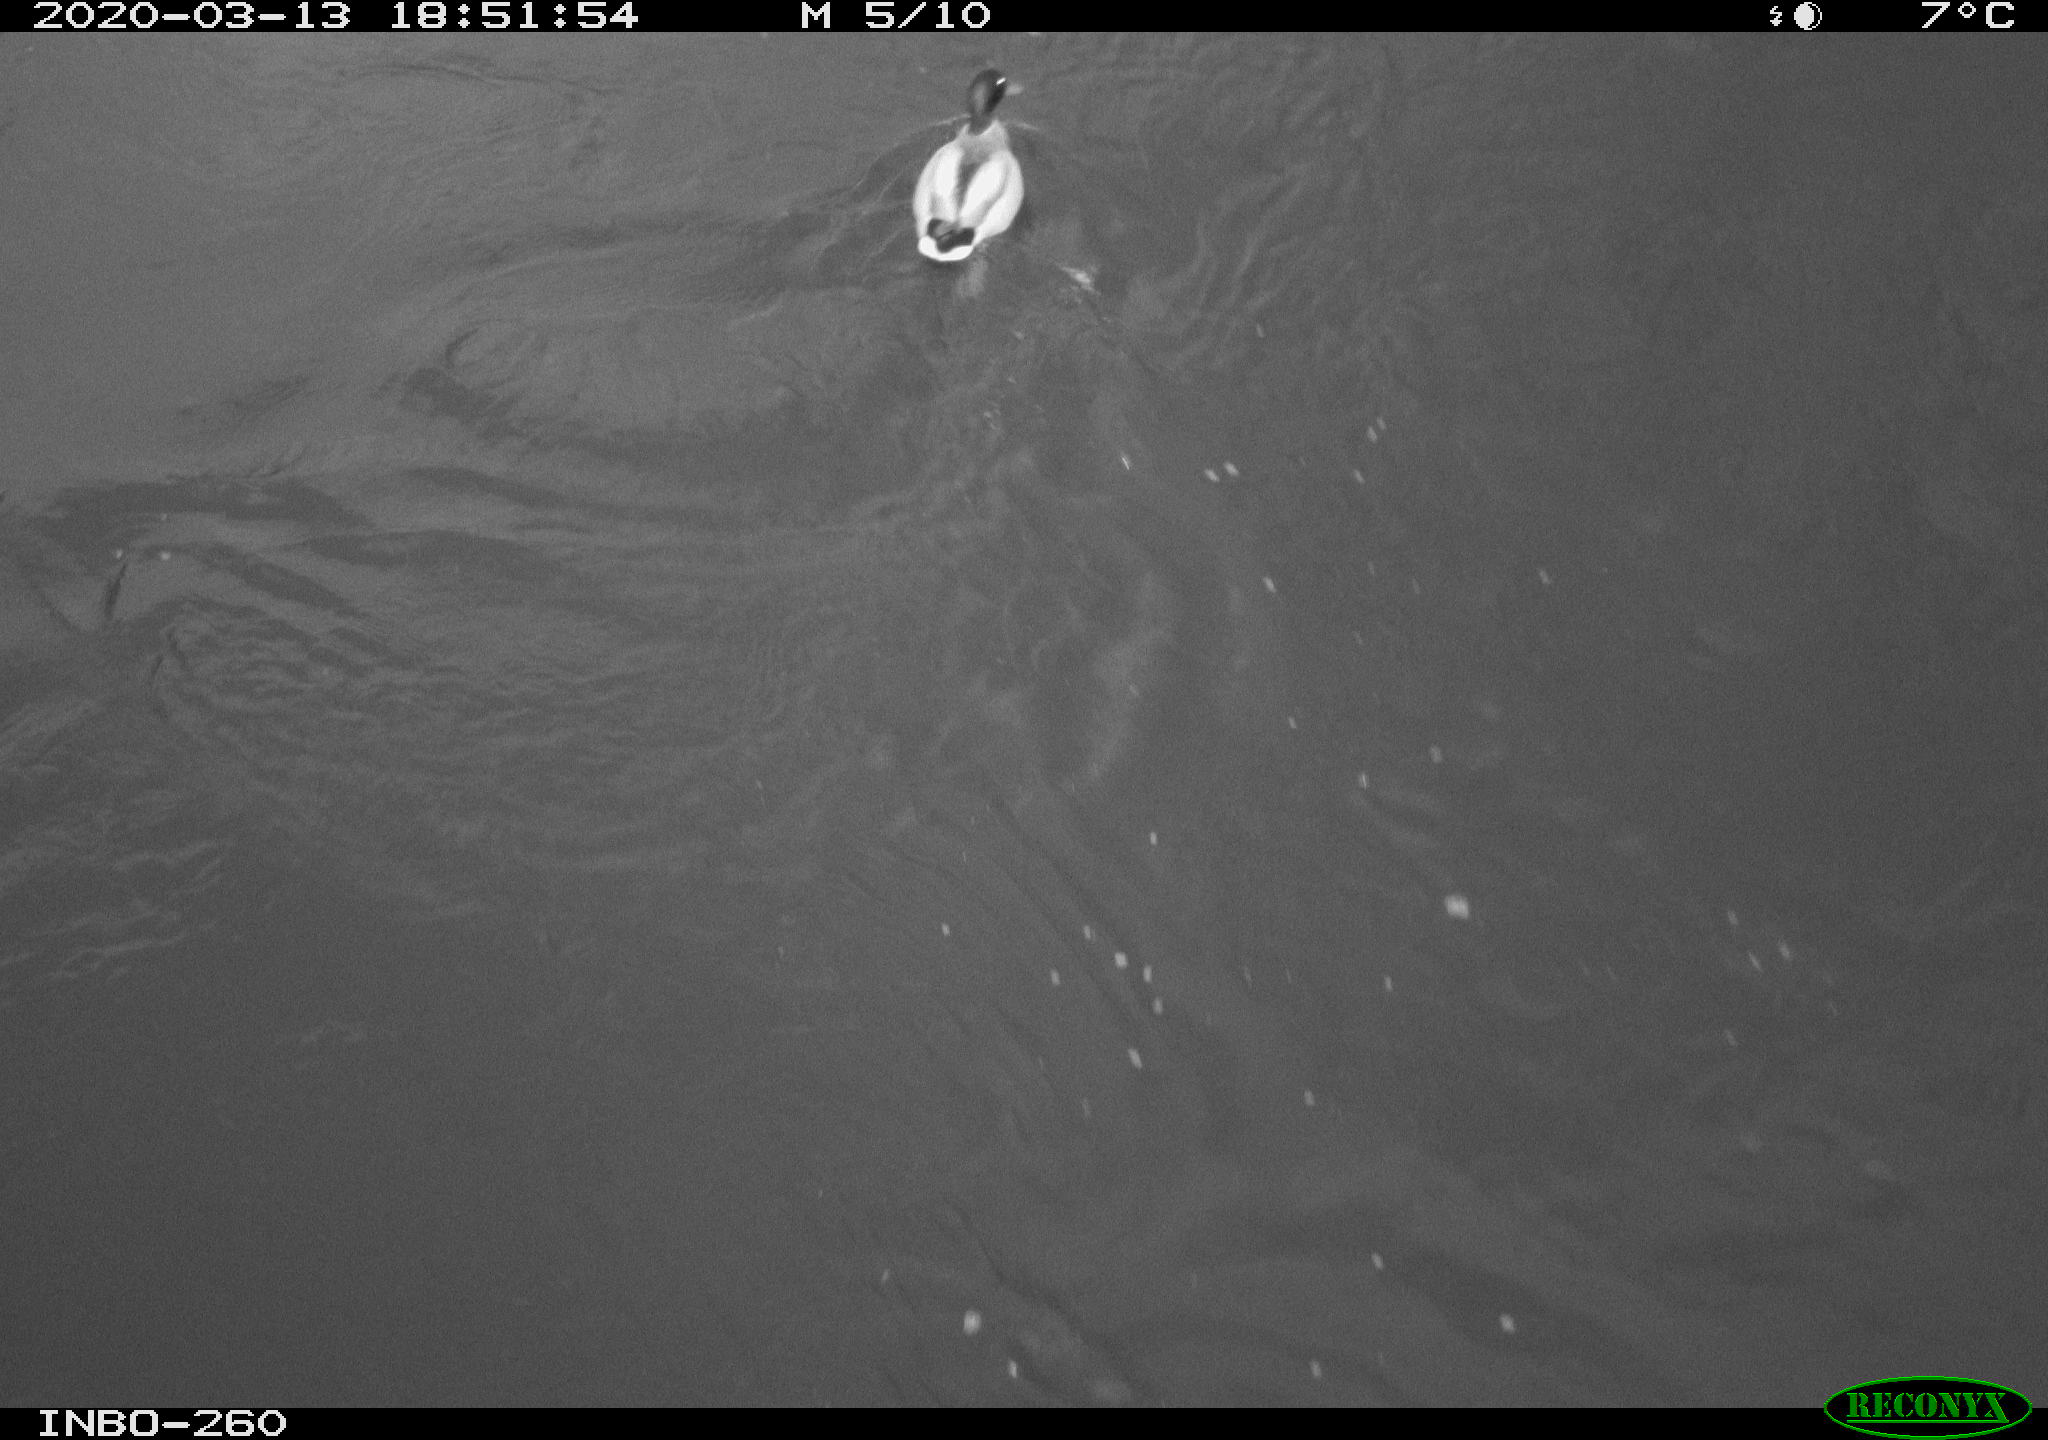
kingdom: Animalia
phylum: Chordata
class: Aves
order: Anseriformes
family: Anatidae
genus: Anas
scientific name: Anas platyrhynchos
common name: Mallard
